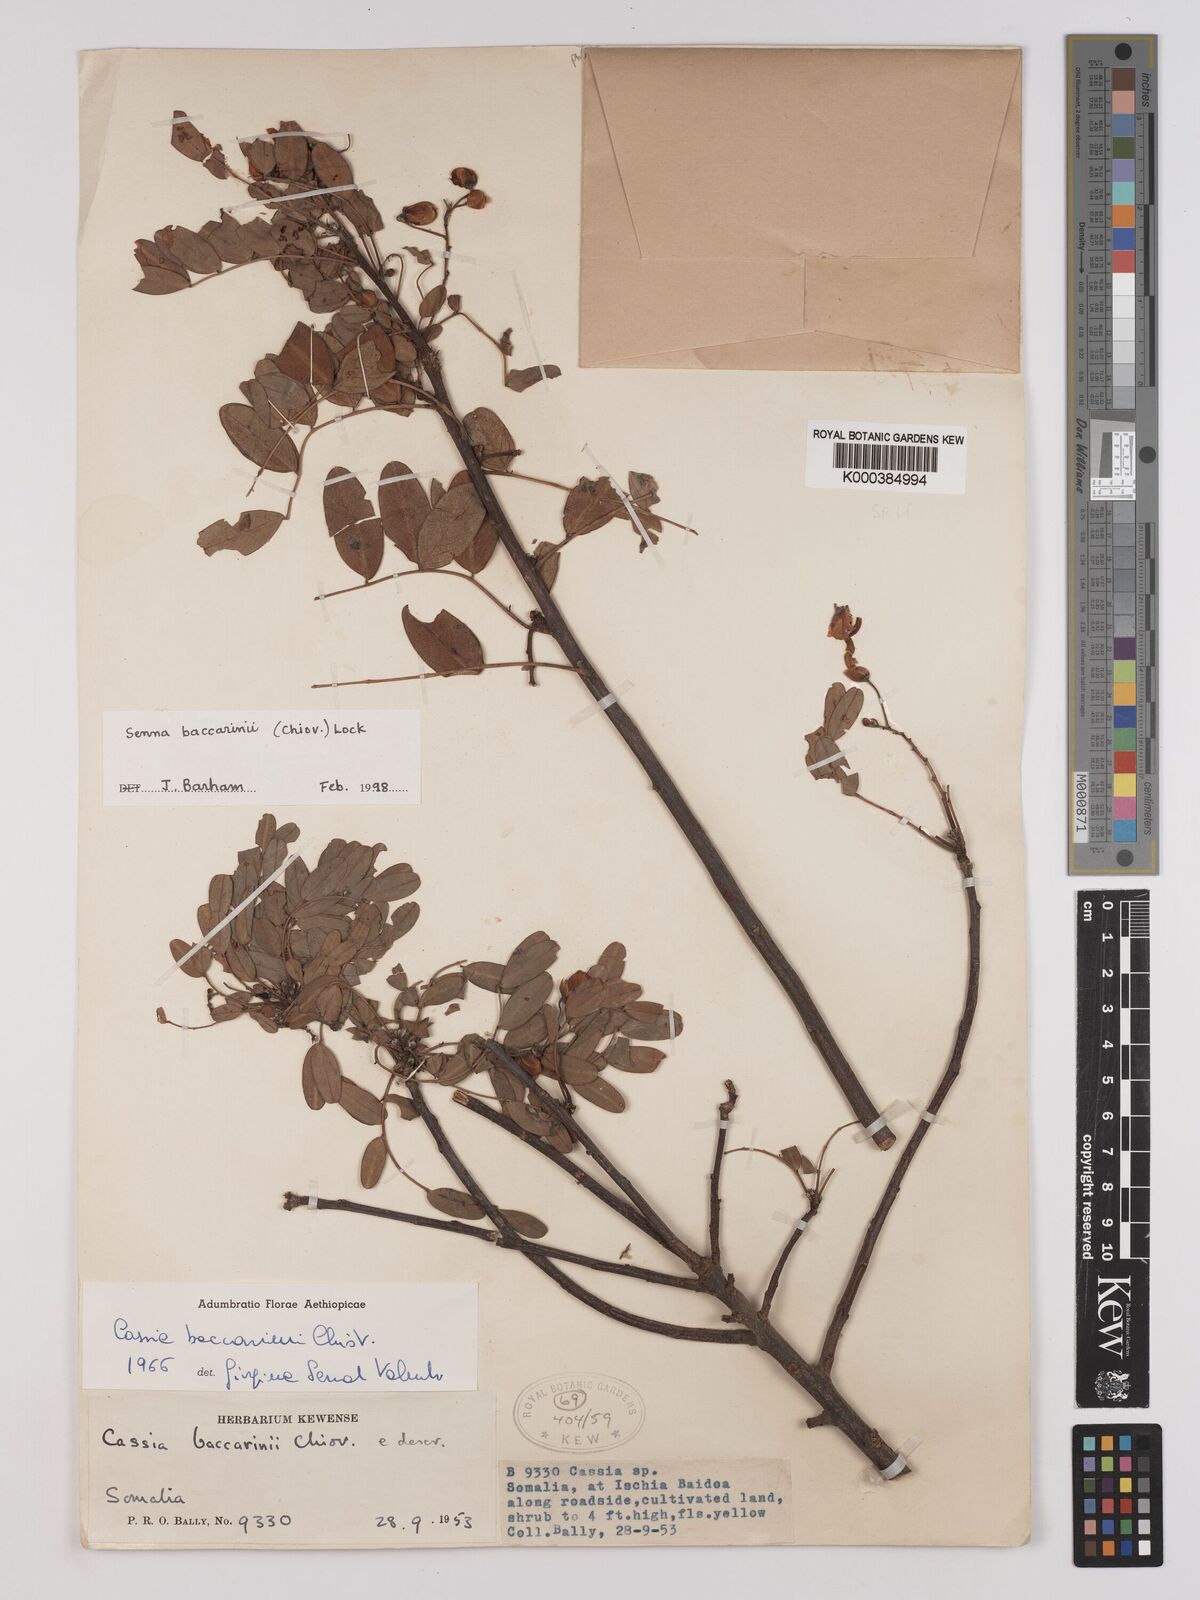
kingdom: Plantae
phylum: Tracheophyta
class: Magnoliopsida
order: Fabales
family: Fabaceae
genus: Senna
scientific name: Senna baccarinii
